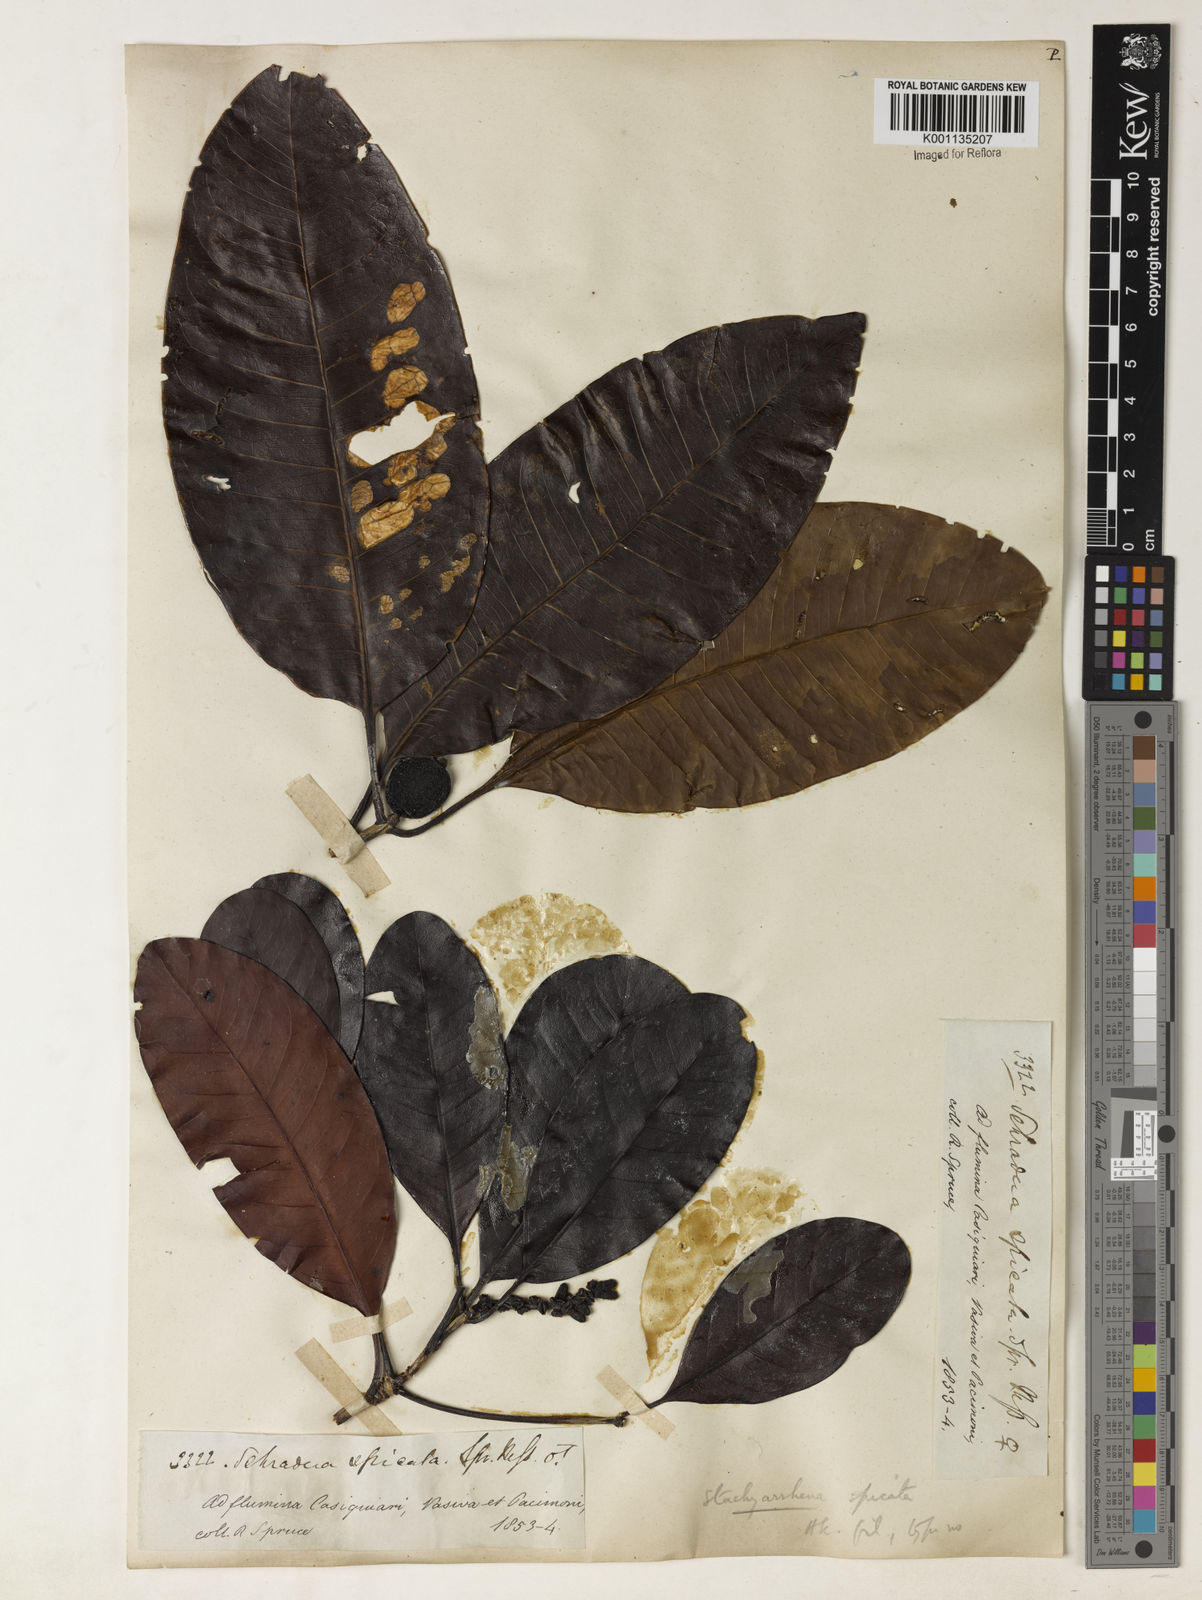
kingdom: Plantae
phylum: Tracheophyta
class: Magnoliopsida
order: Gentianales
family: Rubiaceae
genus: Stachyarrhena
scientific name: Stachyarrhena spicata
